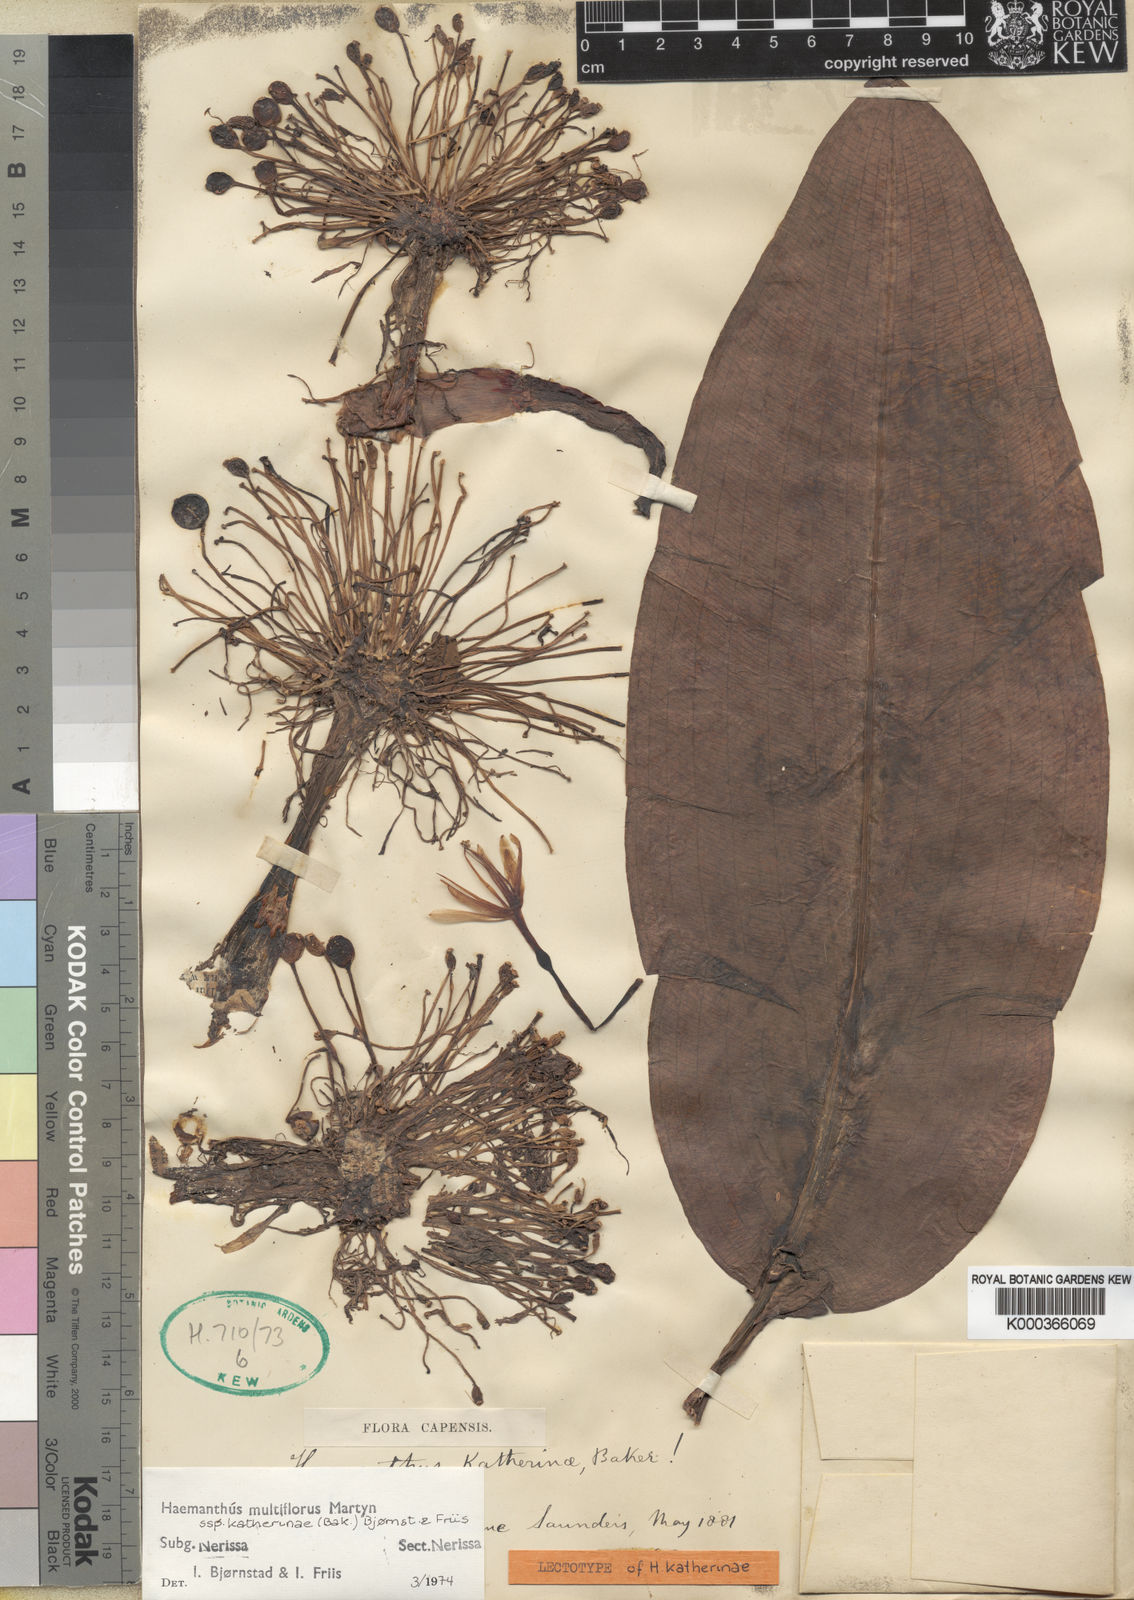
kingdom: Plantae
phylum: Tracheophyta
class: Liliopsida
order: Asparagales
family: Amaryllidaceae
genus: Scadoxus
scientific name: Scadoxus multiflorus
